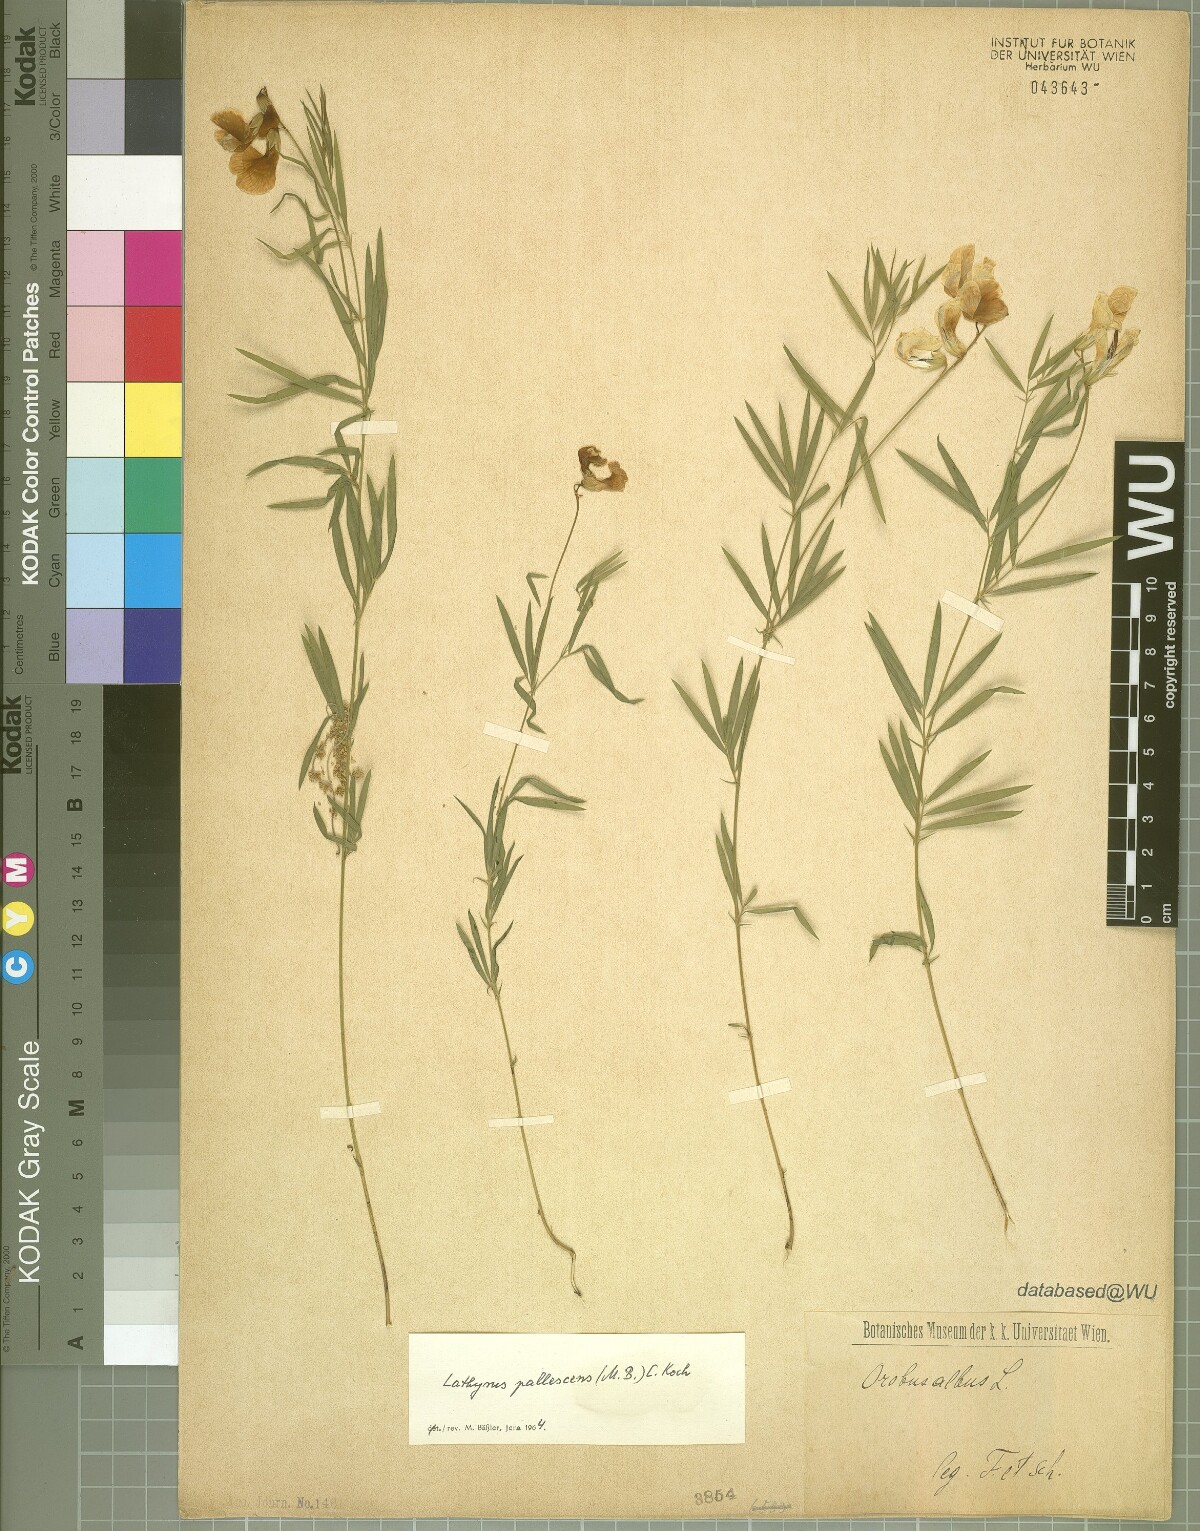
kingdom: Plantae
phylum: Tracheophyta
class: Magnoliopsida
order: Fabales
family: Fabaceae
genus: Lathyrus
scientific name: Lathyrus pallescens
